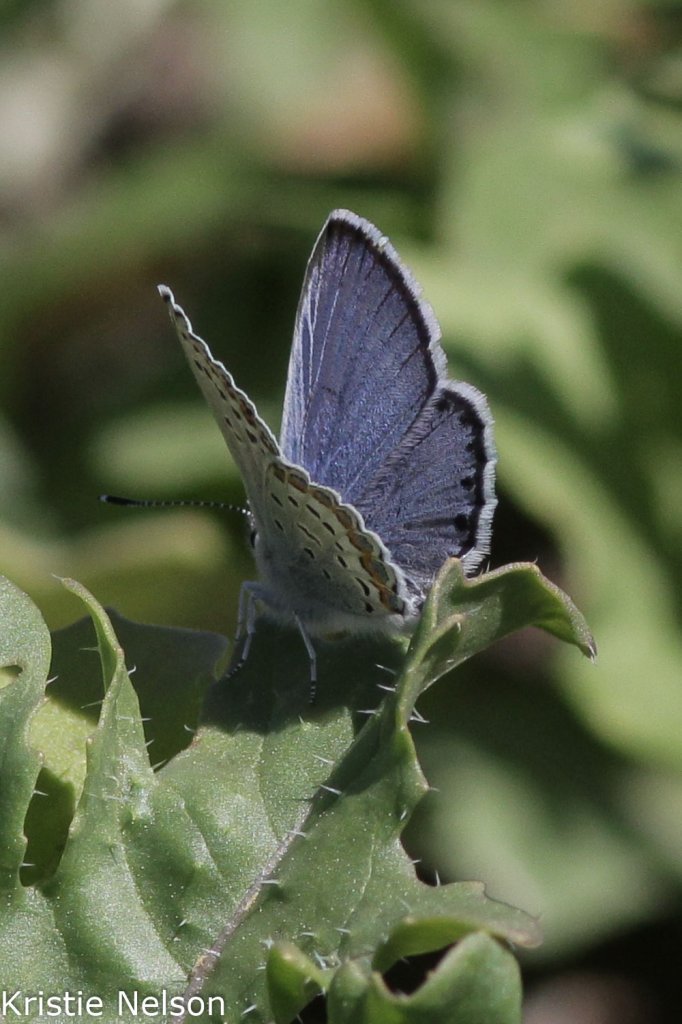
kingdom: Animalia
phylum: Arthropoda
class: Insecta
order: Lepidoptera
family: Lycaenidae
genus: Lycaeides
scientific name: Lycaeides anna
